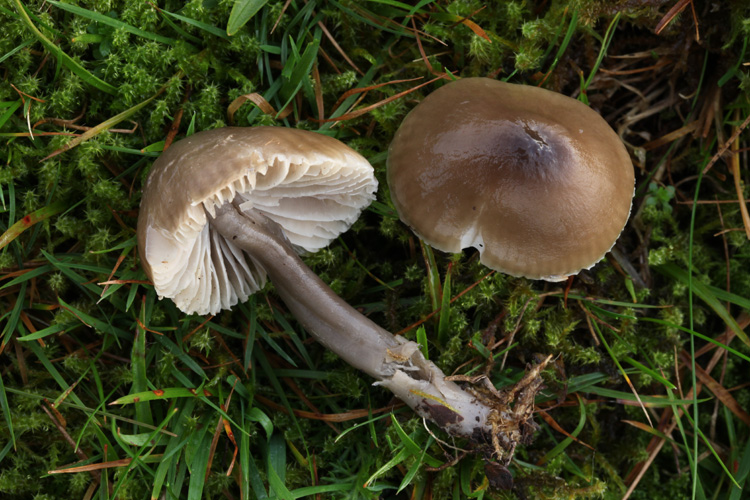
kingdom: Fungi
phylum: Basidiomycota
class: Agaricomycetes
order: Agaricales
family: Hygrophoraceae
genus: Gliophorus
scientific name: Gliophorus irrigatus
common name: slimet vokshat
